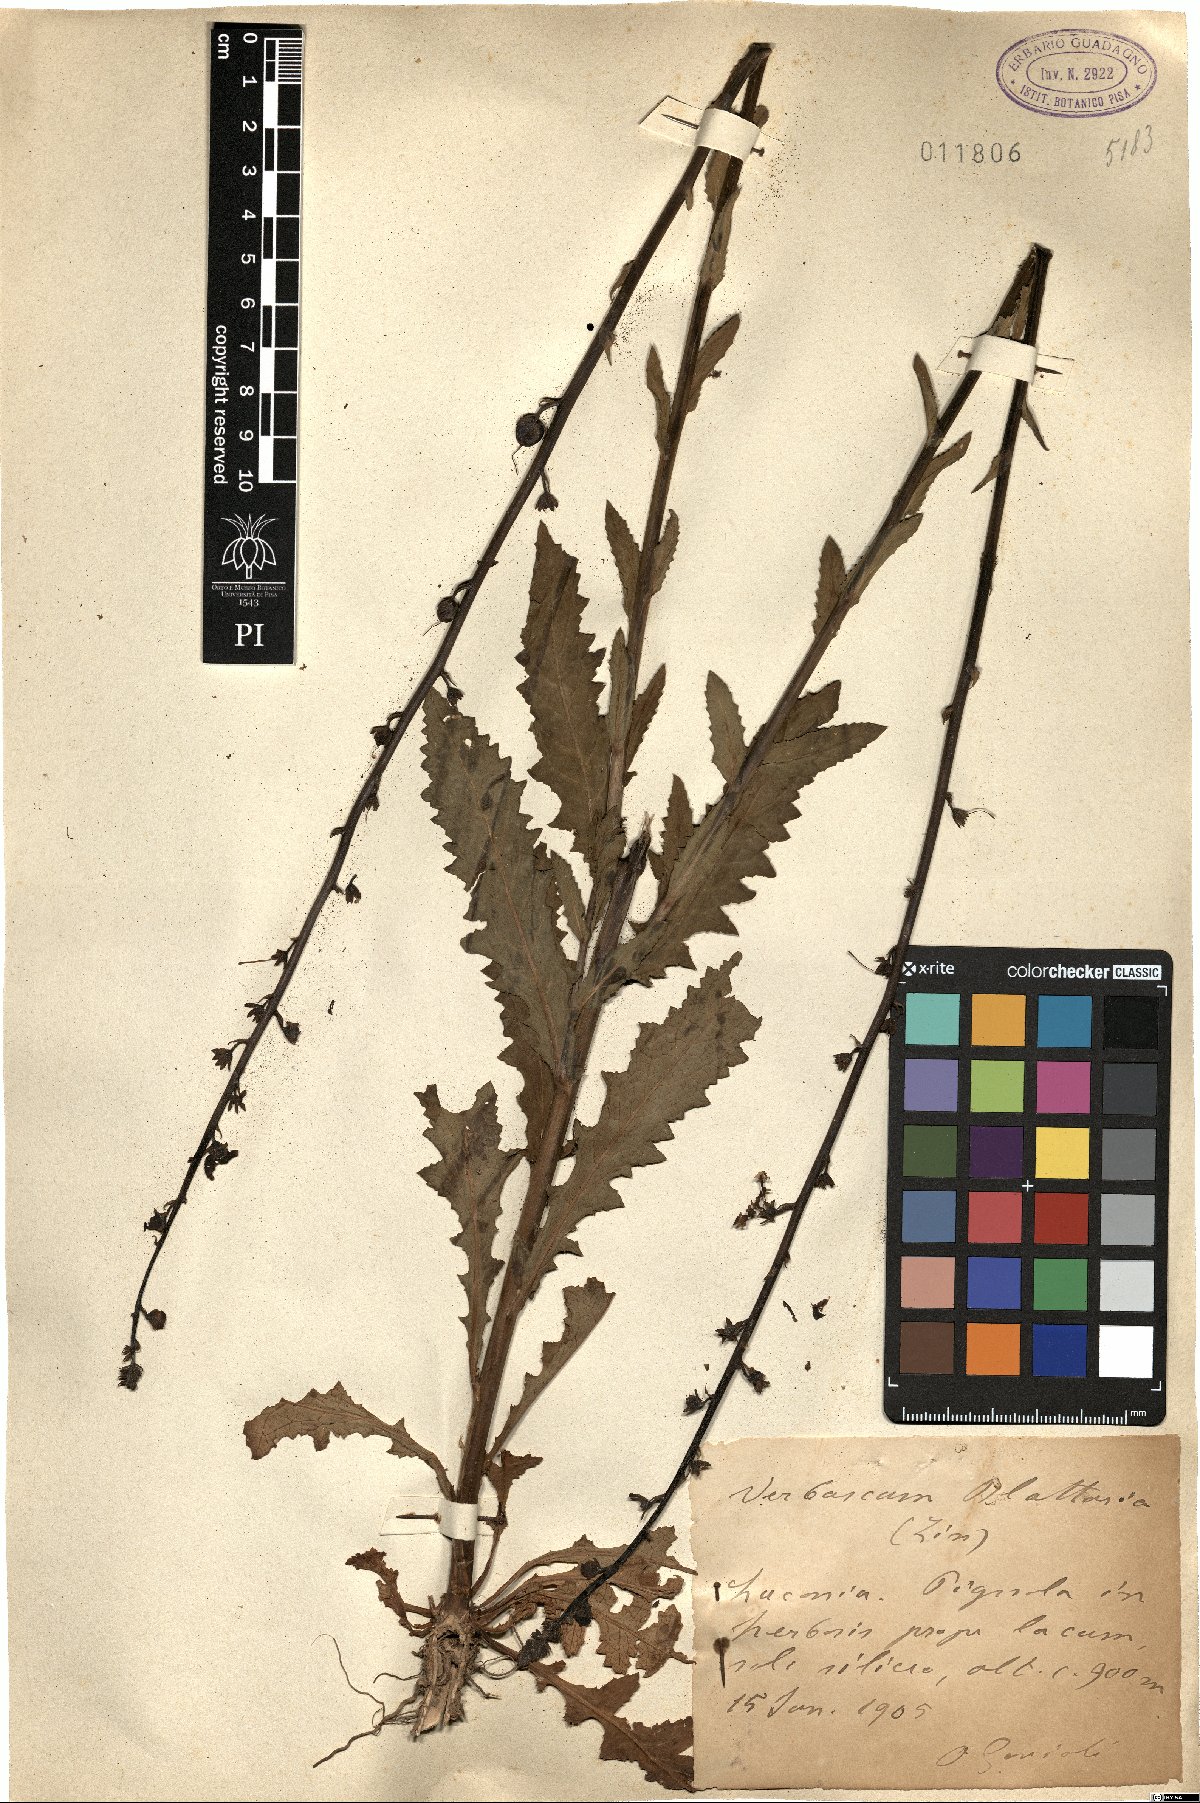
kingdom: Plantae
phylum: Tracheophyta
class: Magnoliopsida
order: Lamiales
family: Scrophulariaceae
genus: Verbascum
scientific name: Verbascum blattaria
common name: Moth mullein
